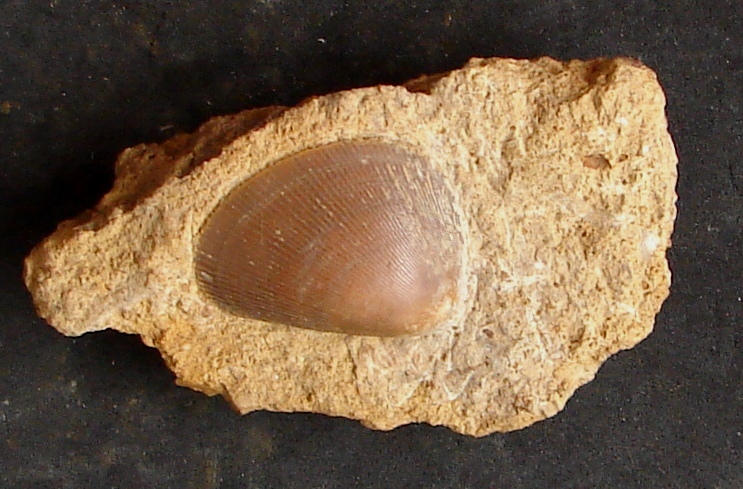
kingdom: Animalia
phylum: Mollusca
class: Bivalvia
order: Limida
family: Limidae
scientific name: Limidae
